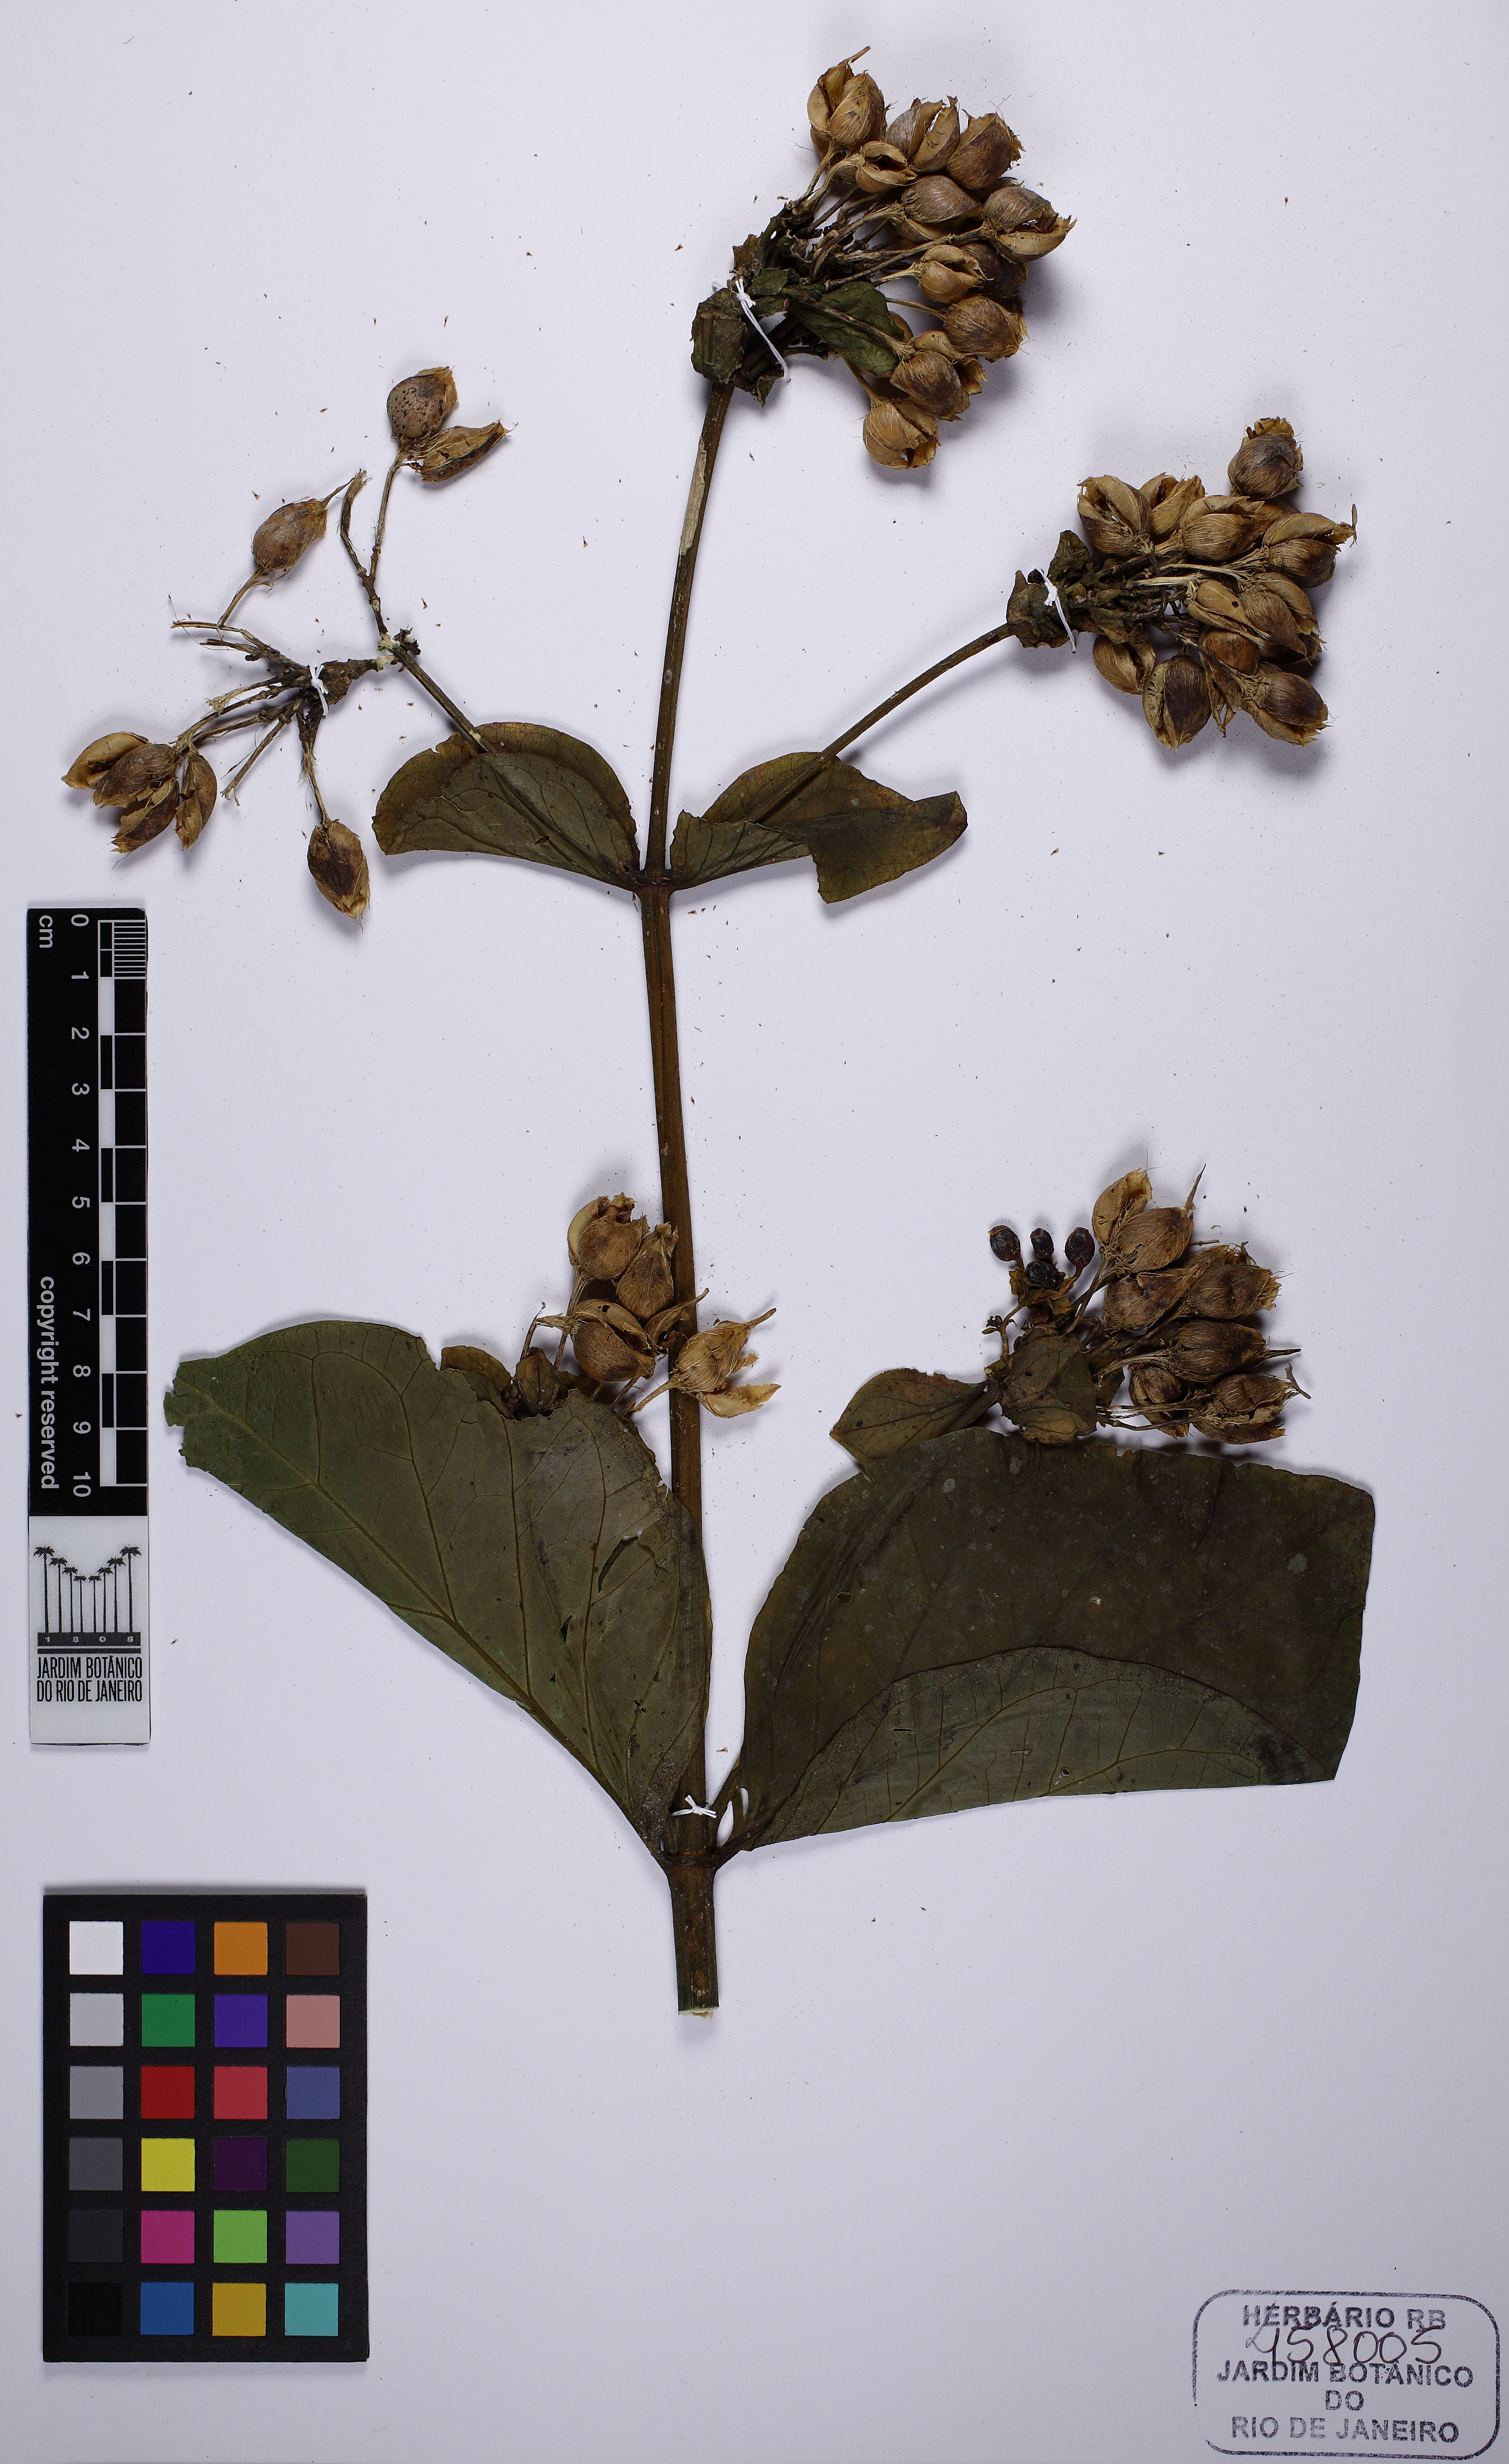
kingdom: Plantae
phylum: Tracheophyta
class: Magnoliopsida
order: Gentianales
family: Gentianaceae
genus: Macrocarpaea
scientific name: Macrocarpaea glaziovii
